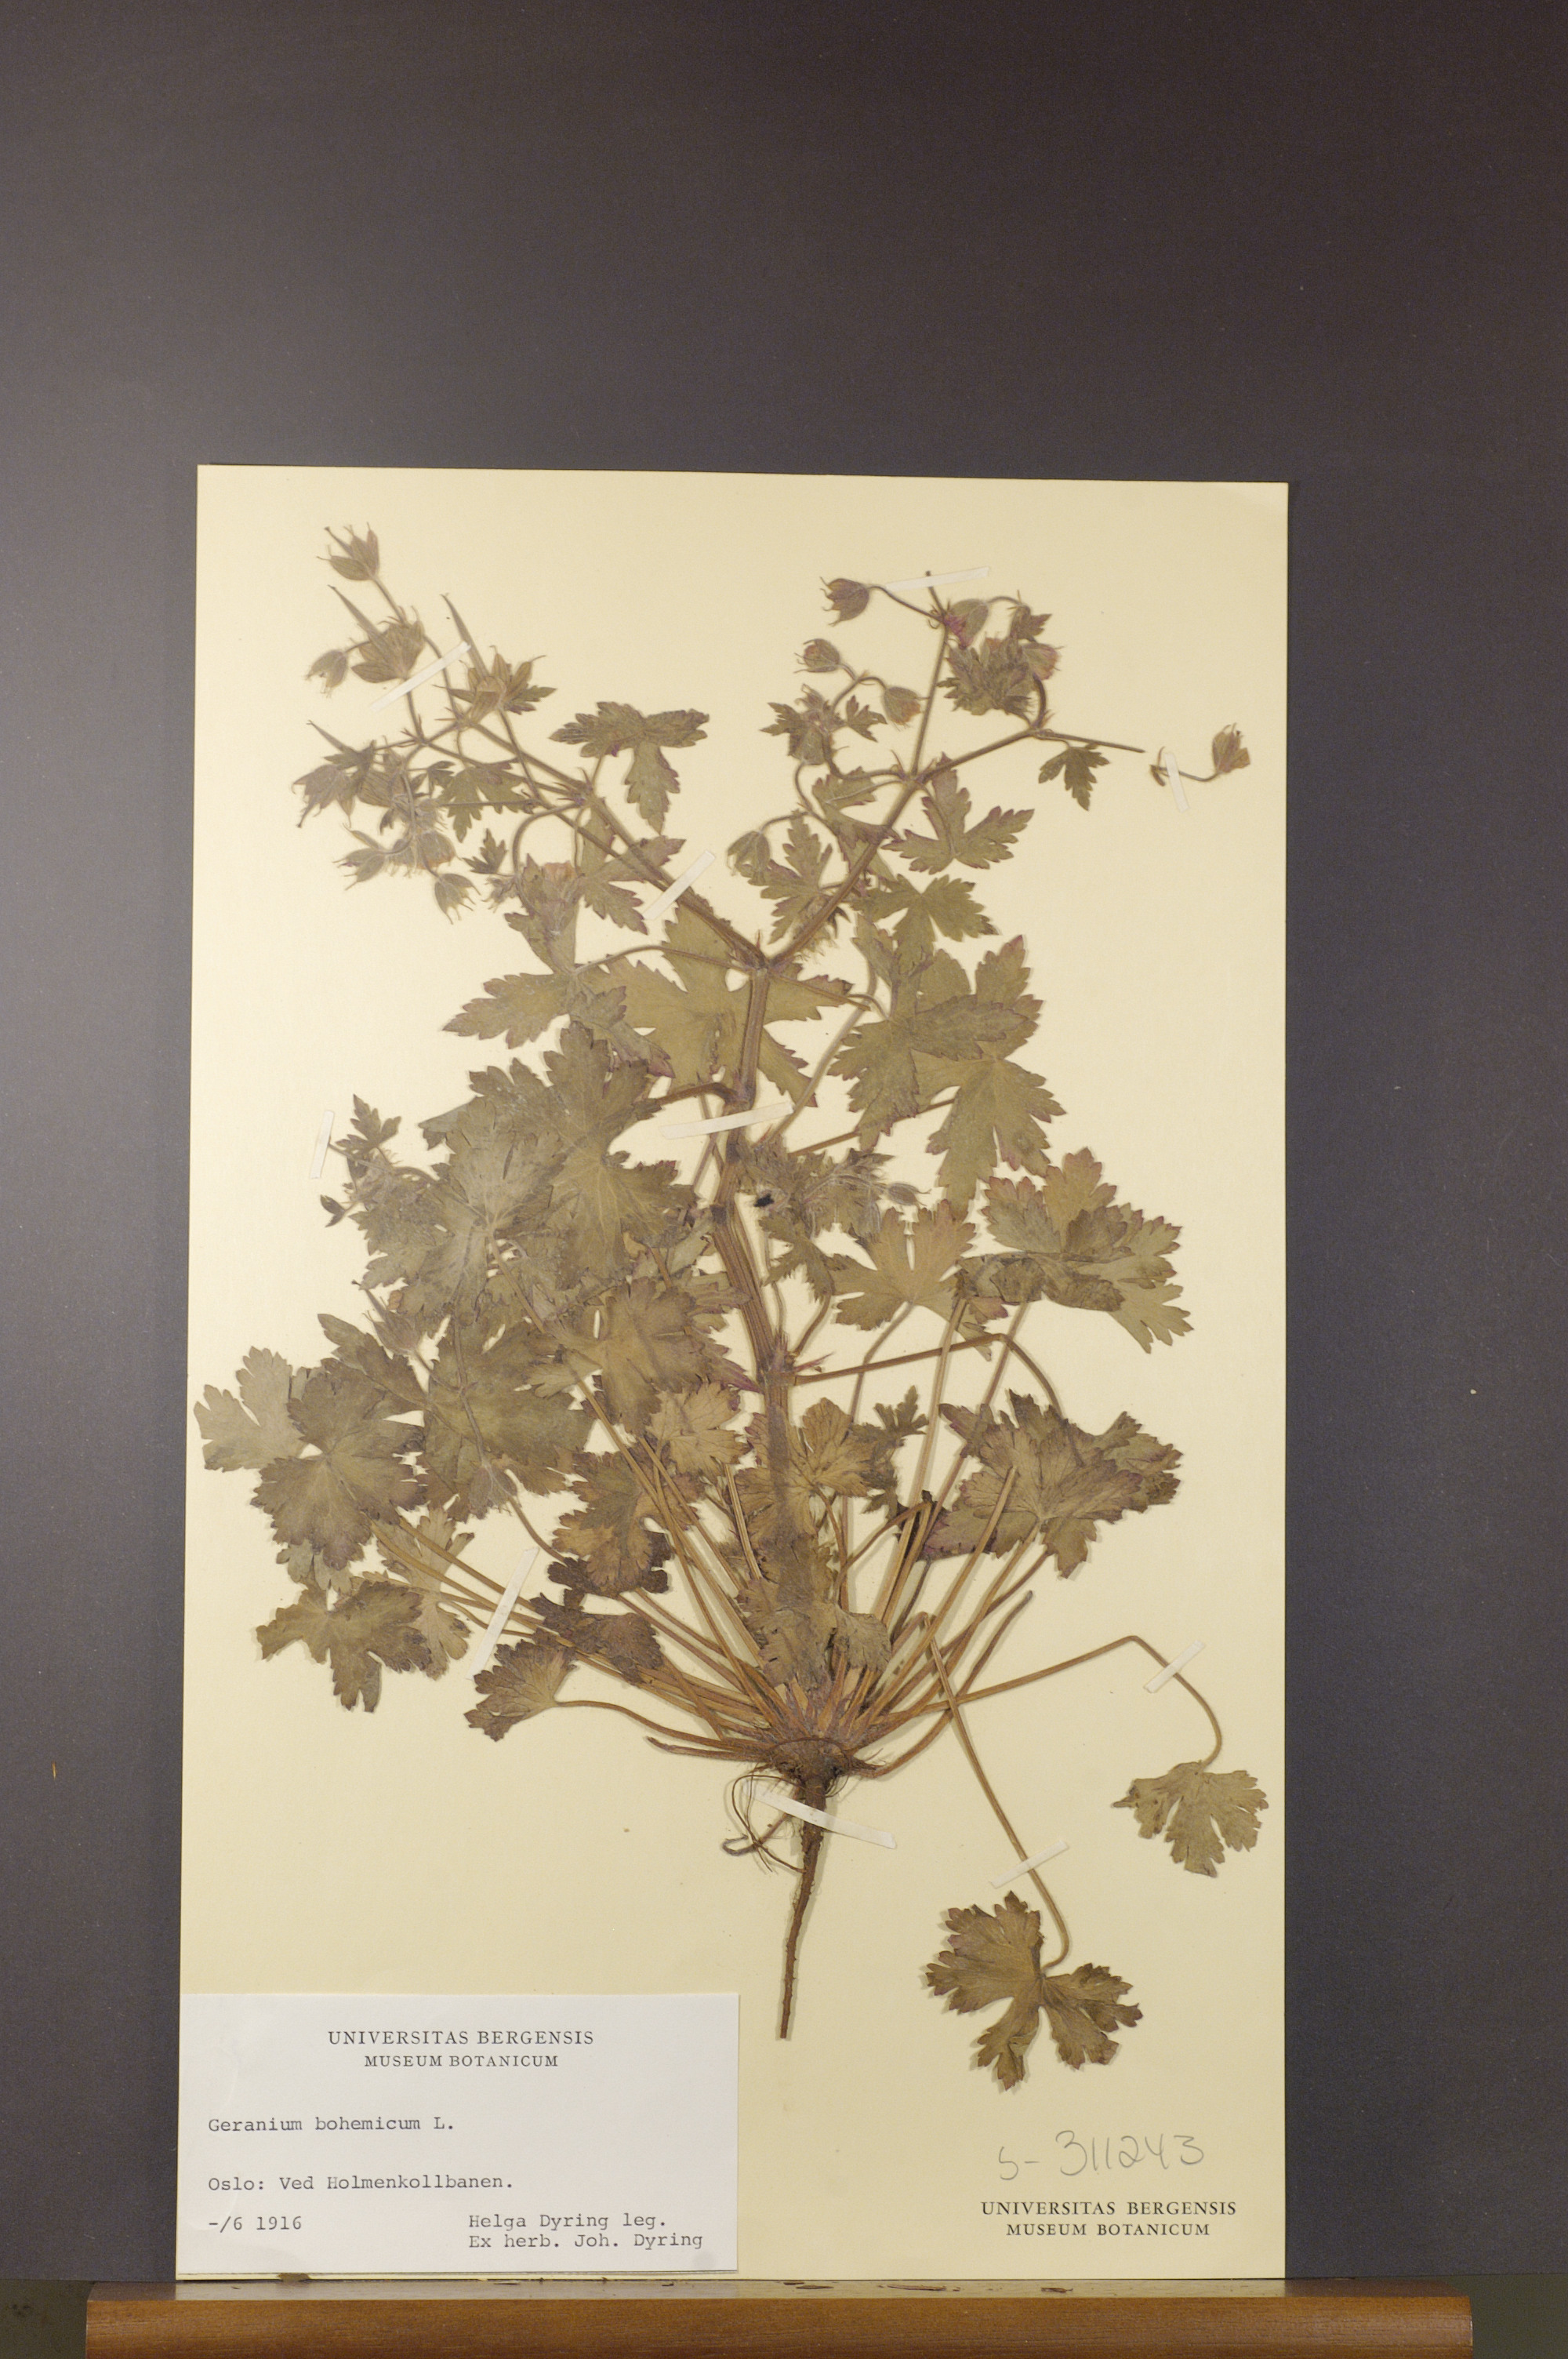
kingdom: Plantae
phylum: Tracheophyta
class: Magnoliopsida
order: Geraniales
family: Geraniaceae
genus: Geranium
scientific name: Geranium bohemicum
